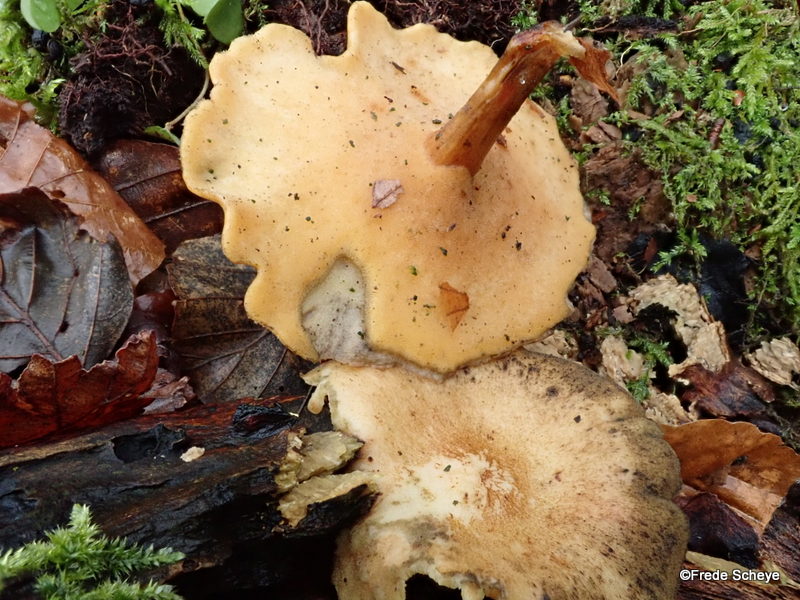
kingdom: Fungi
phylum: Basidiomycota
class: Agaricomycetes
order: Polyporales
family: Polyporaceae
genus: Lentinus
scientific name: Lentinus brumalis
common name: vinter-stilkporesvamp
